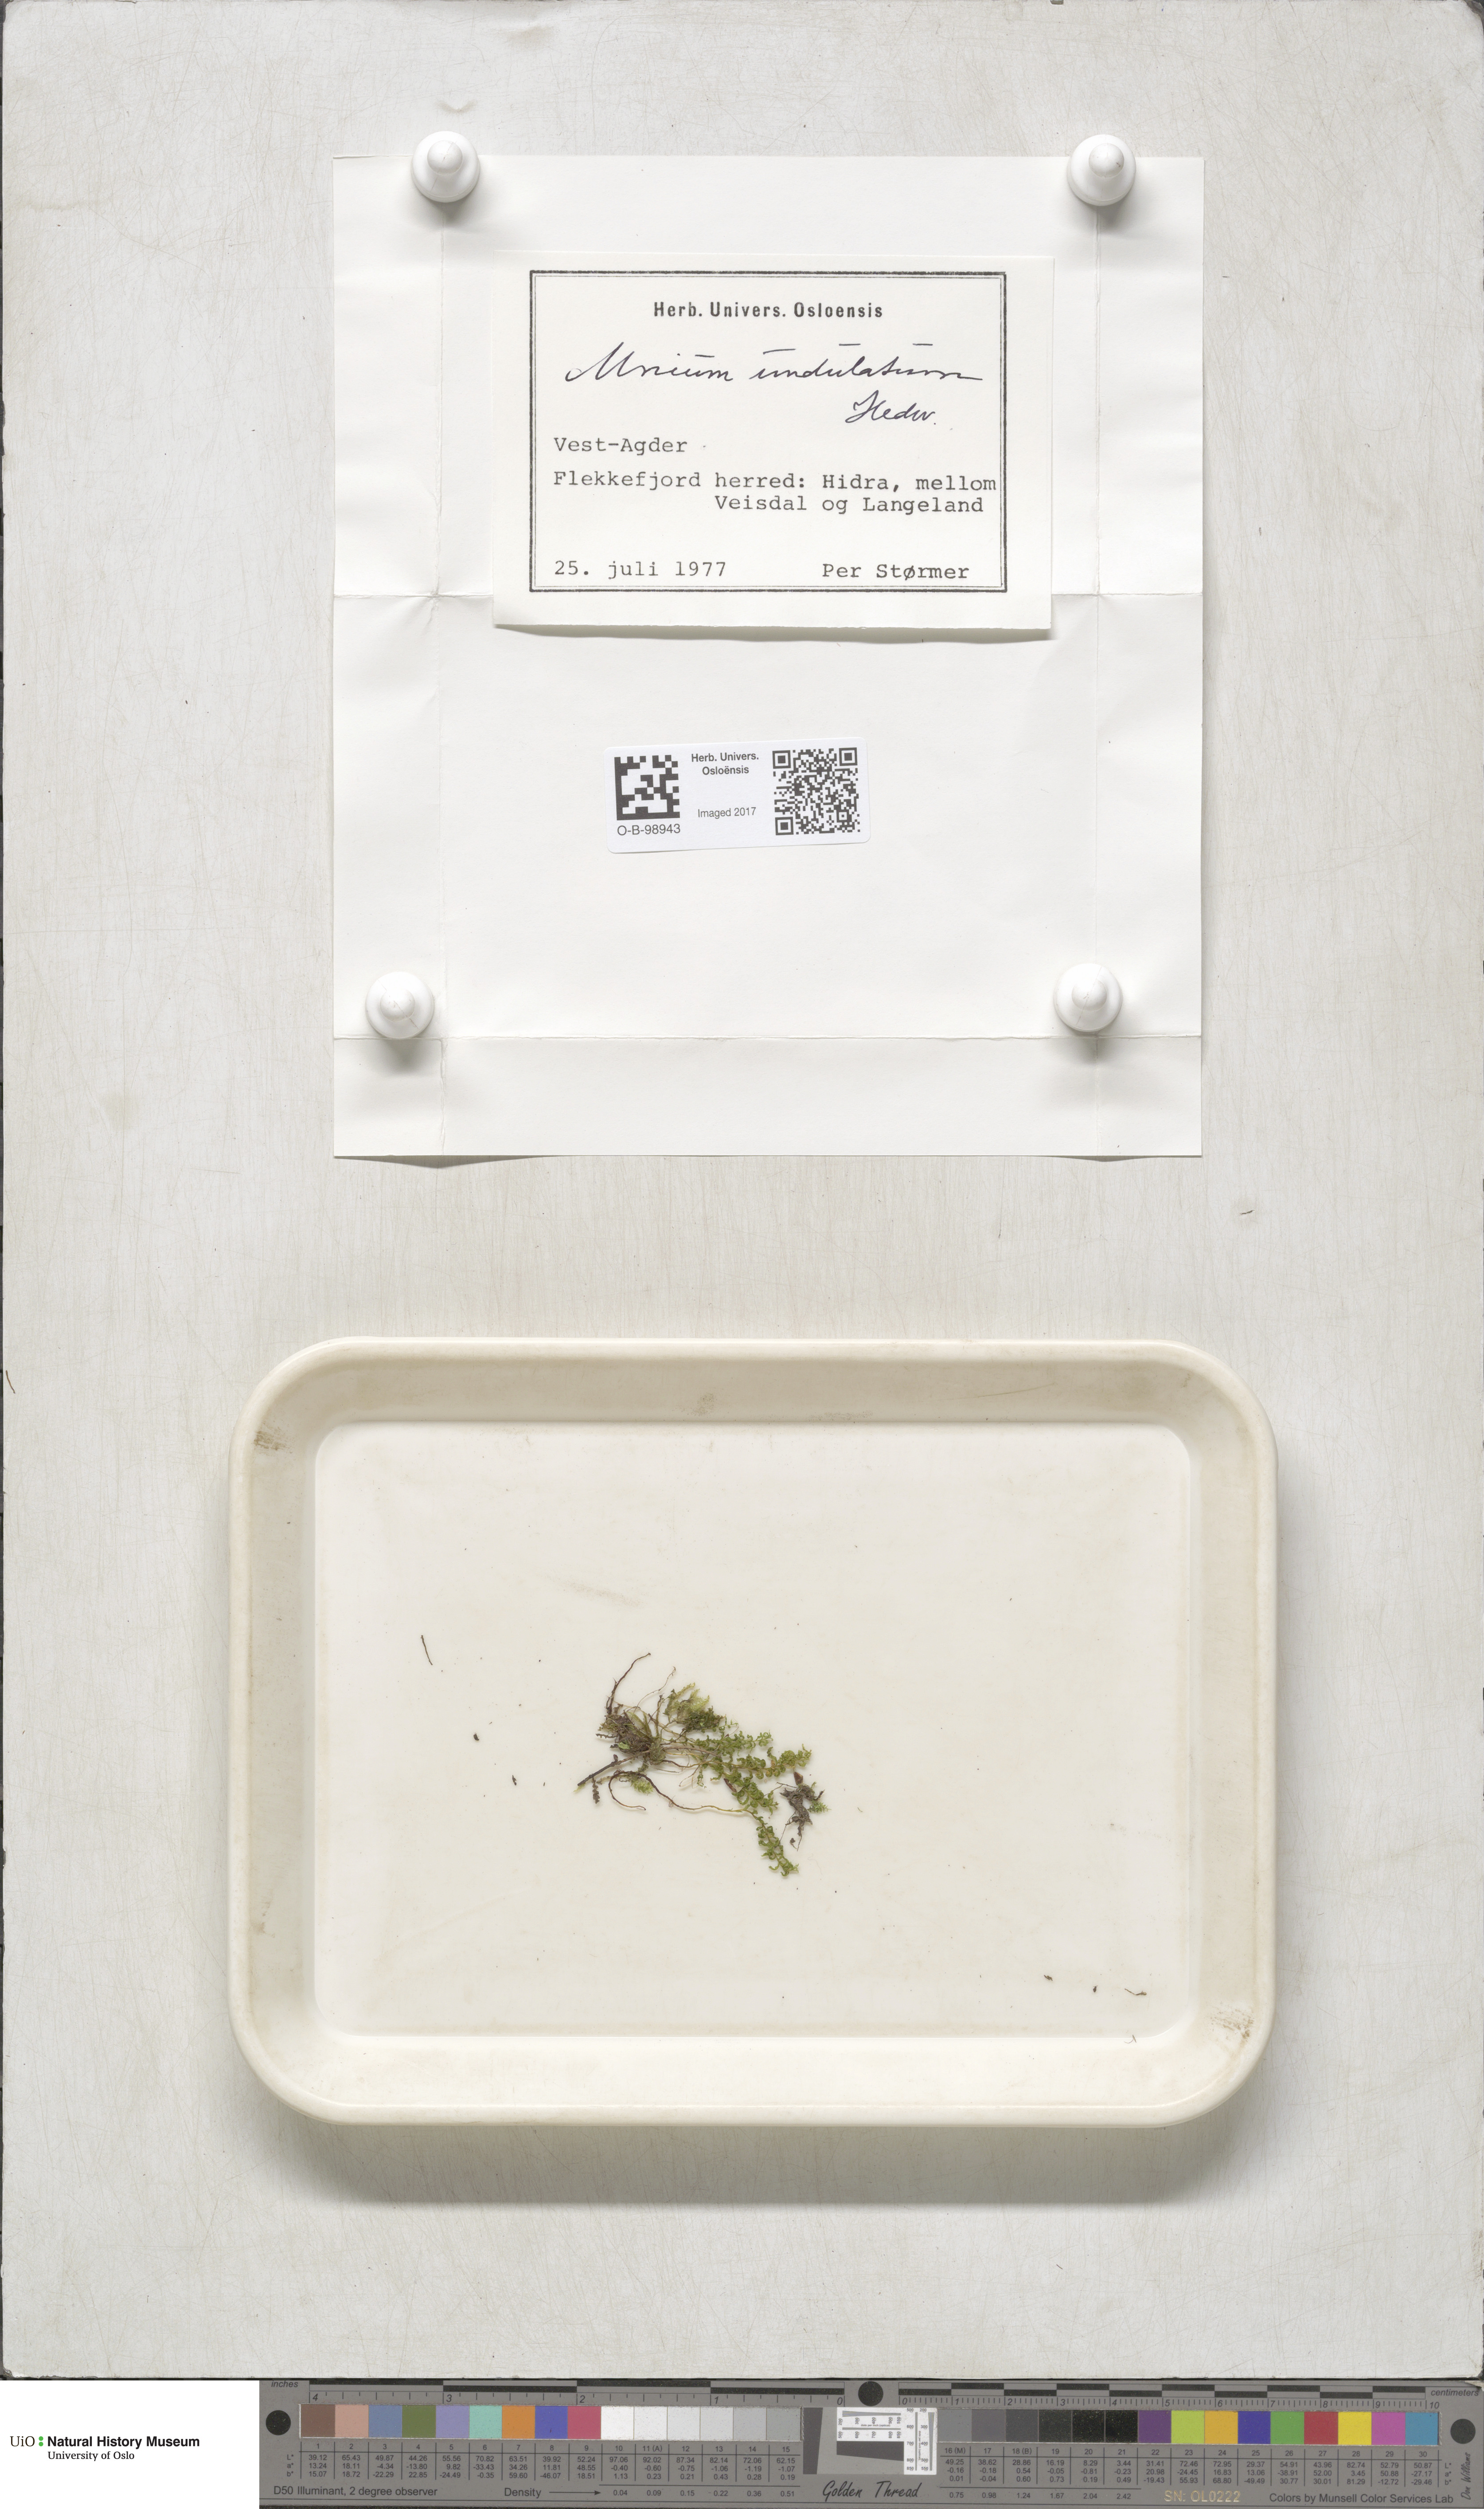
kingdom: Plantae
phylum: Bryophyta
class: Bryopsida
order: Bryales
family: Mniaceae
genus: Plagiomnium
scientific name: Plagiomnium undulatum
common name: Hart's-tongue thyme-moss
